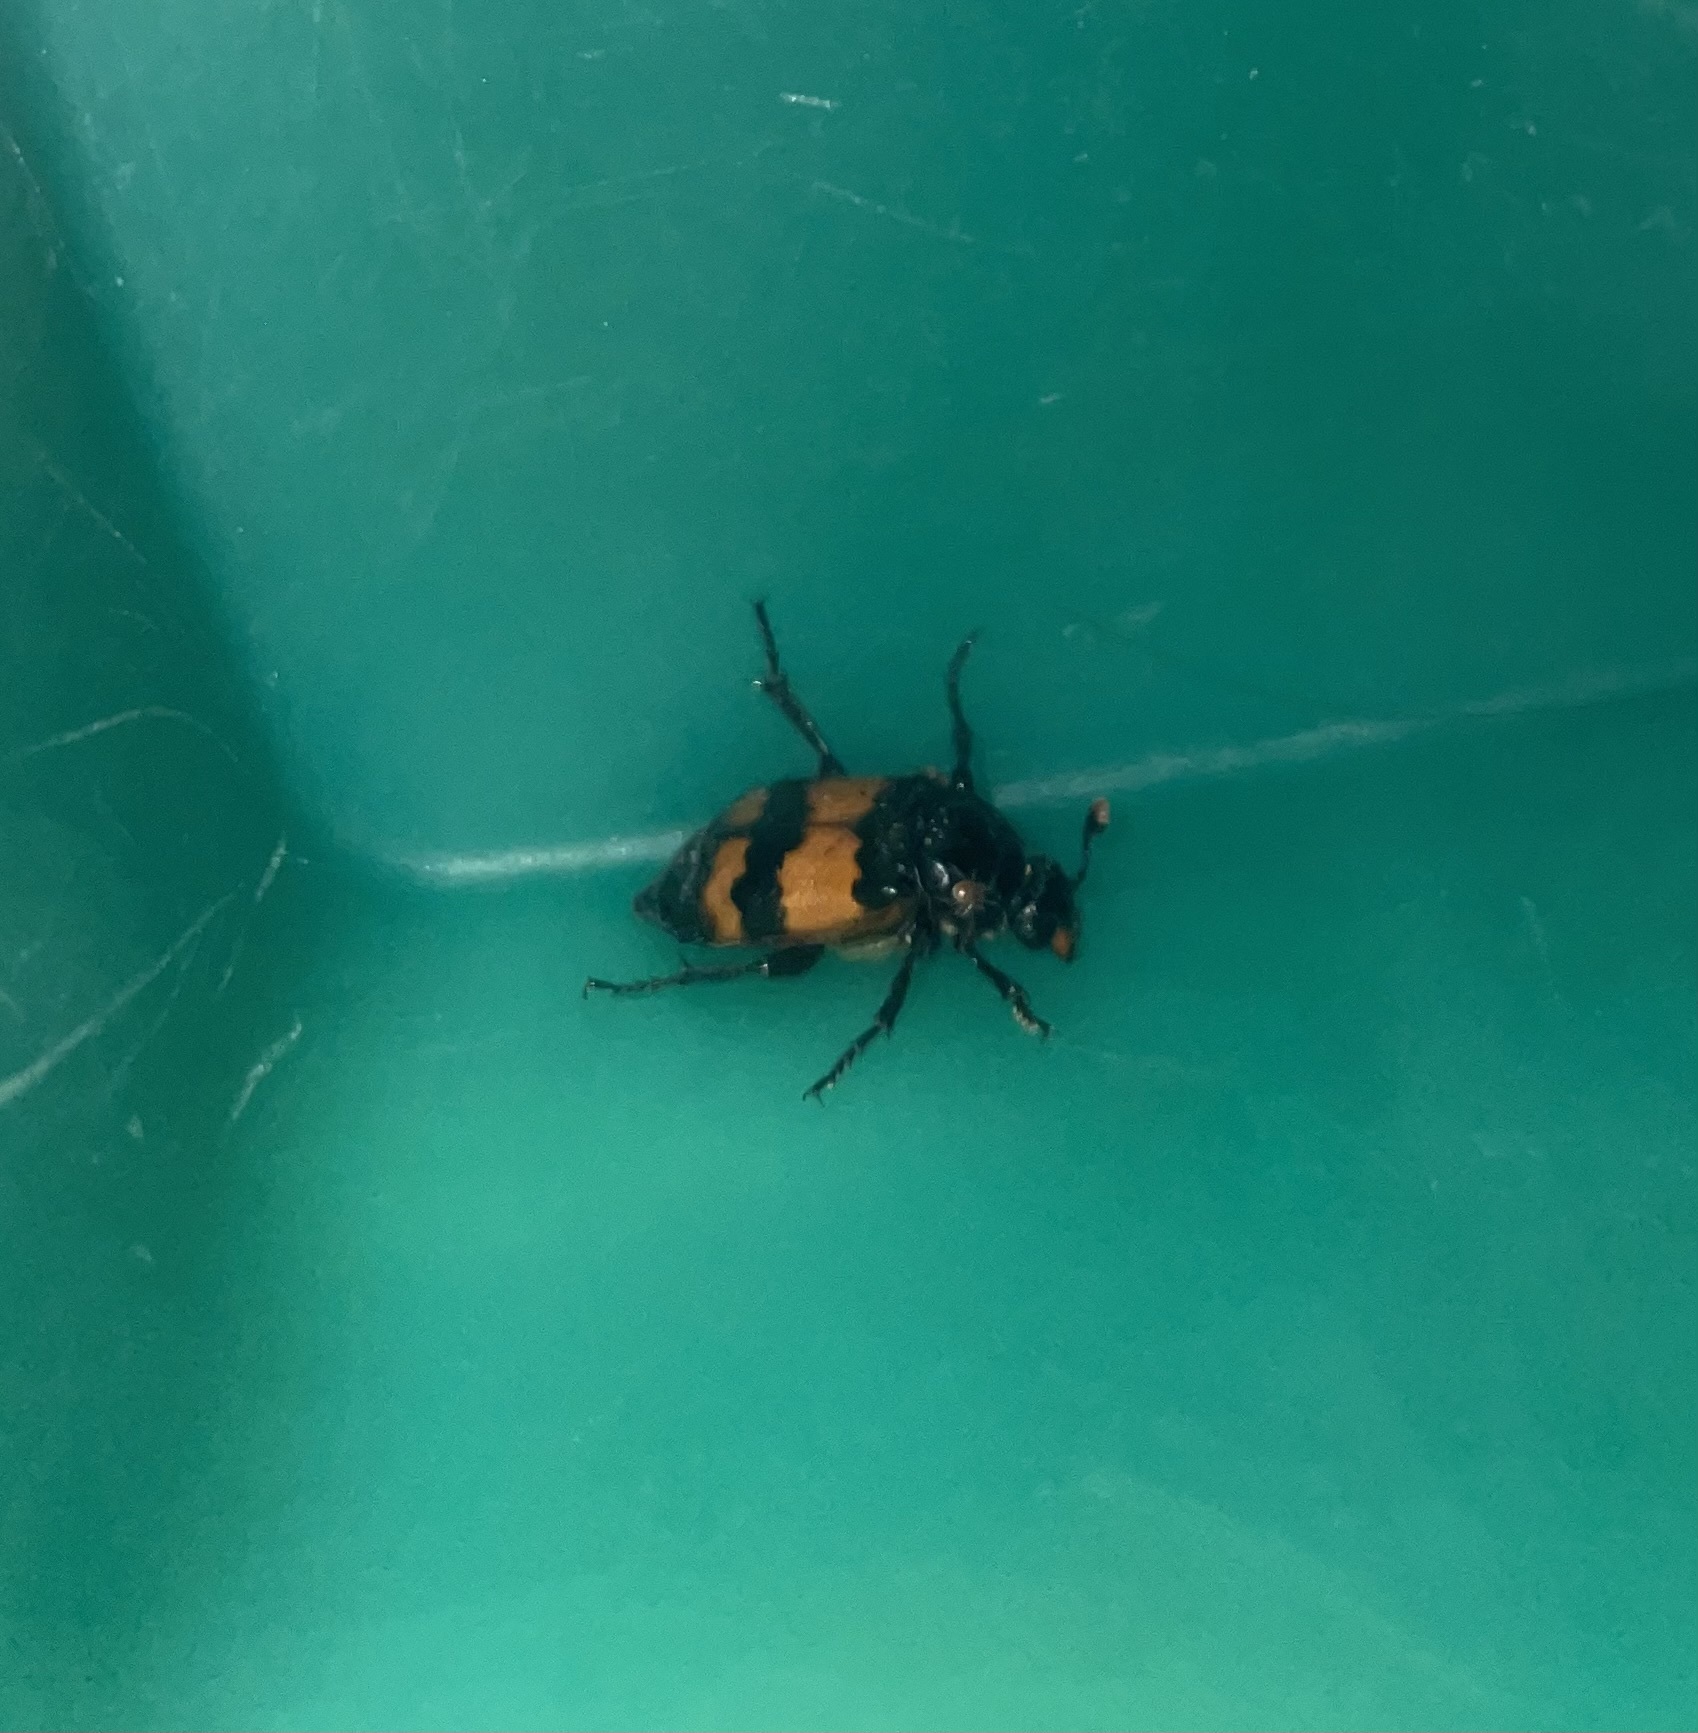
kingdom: Animalia
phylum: Arthropoda
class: Insecta
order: Coleoptera
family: Staphylinidae
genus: Nicrophorus
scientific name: Nicrophorus investigator
